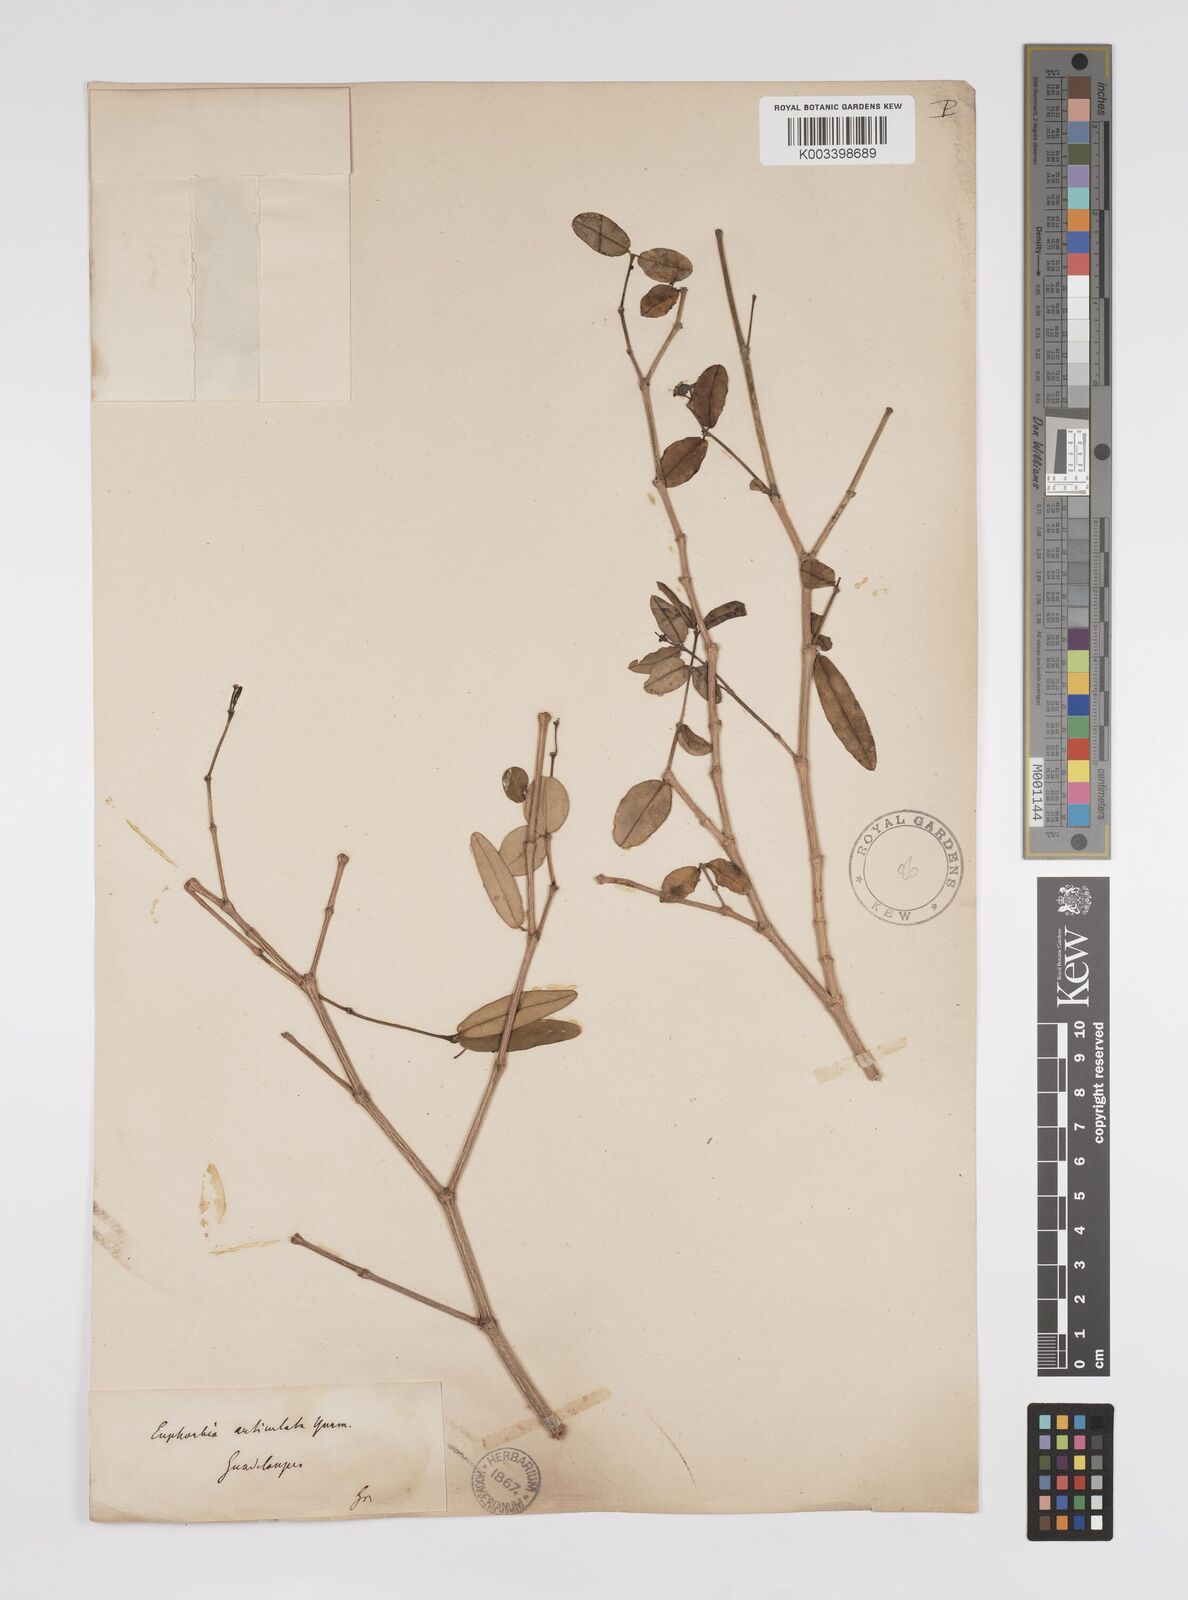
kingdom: Plantae
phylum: Tracheophyta
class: Magnoliopsida
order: Malpighiales
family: Euphorbiaceae
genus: Euphorbia
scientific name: Euphorbia articulata
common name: Jointed sandmat
